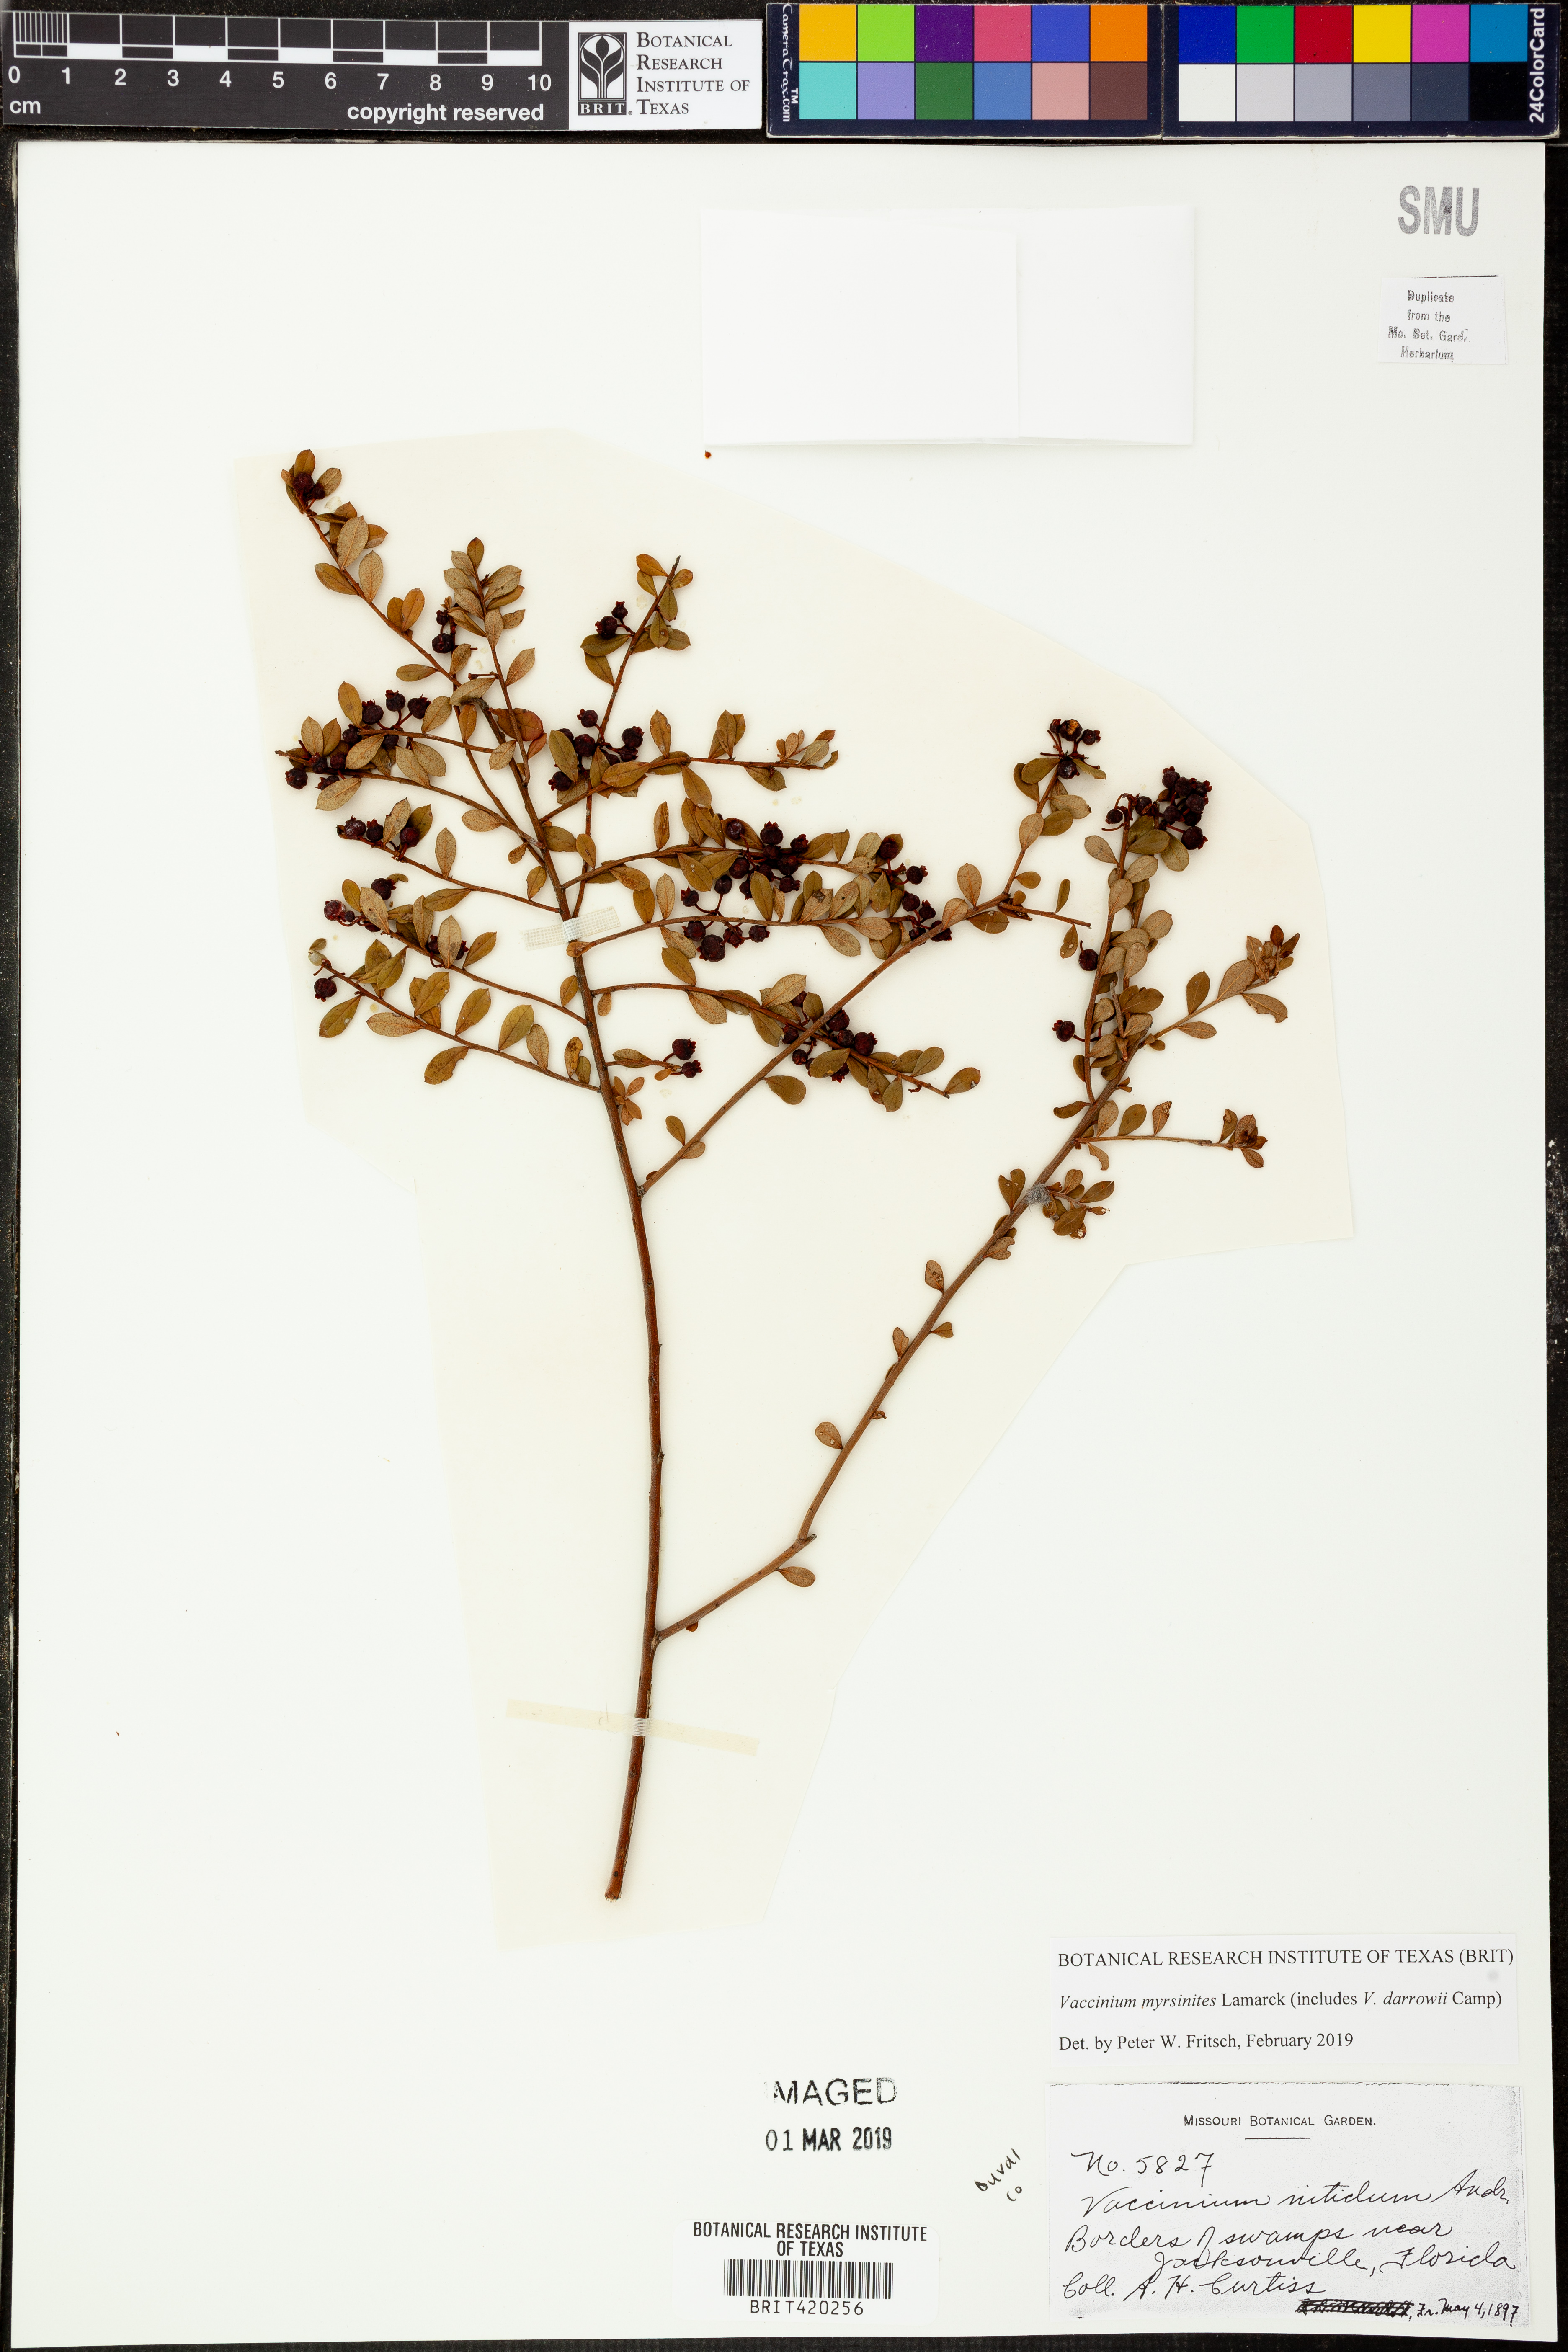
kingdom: Plantae
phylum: Tracheophyta
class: Magnoliopsida
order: Ericales
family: Ericaceae
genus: Vaccinium
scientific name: Vaccinium myrsinites
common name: Evergreen blueberry
